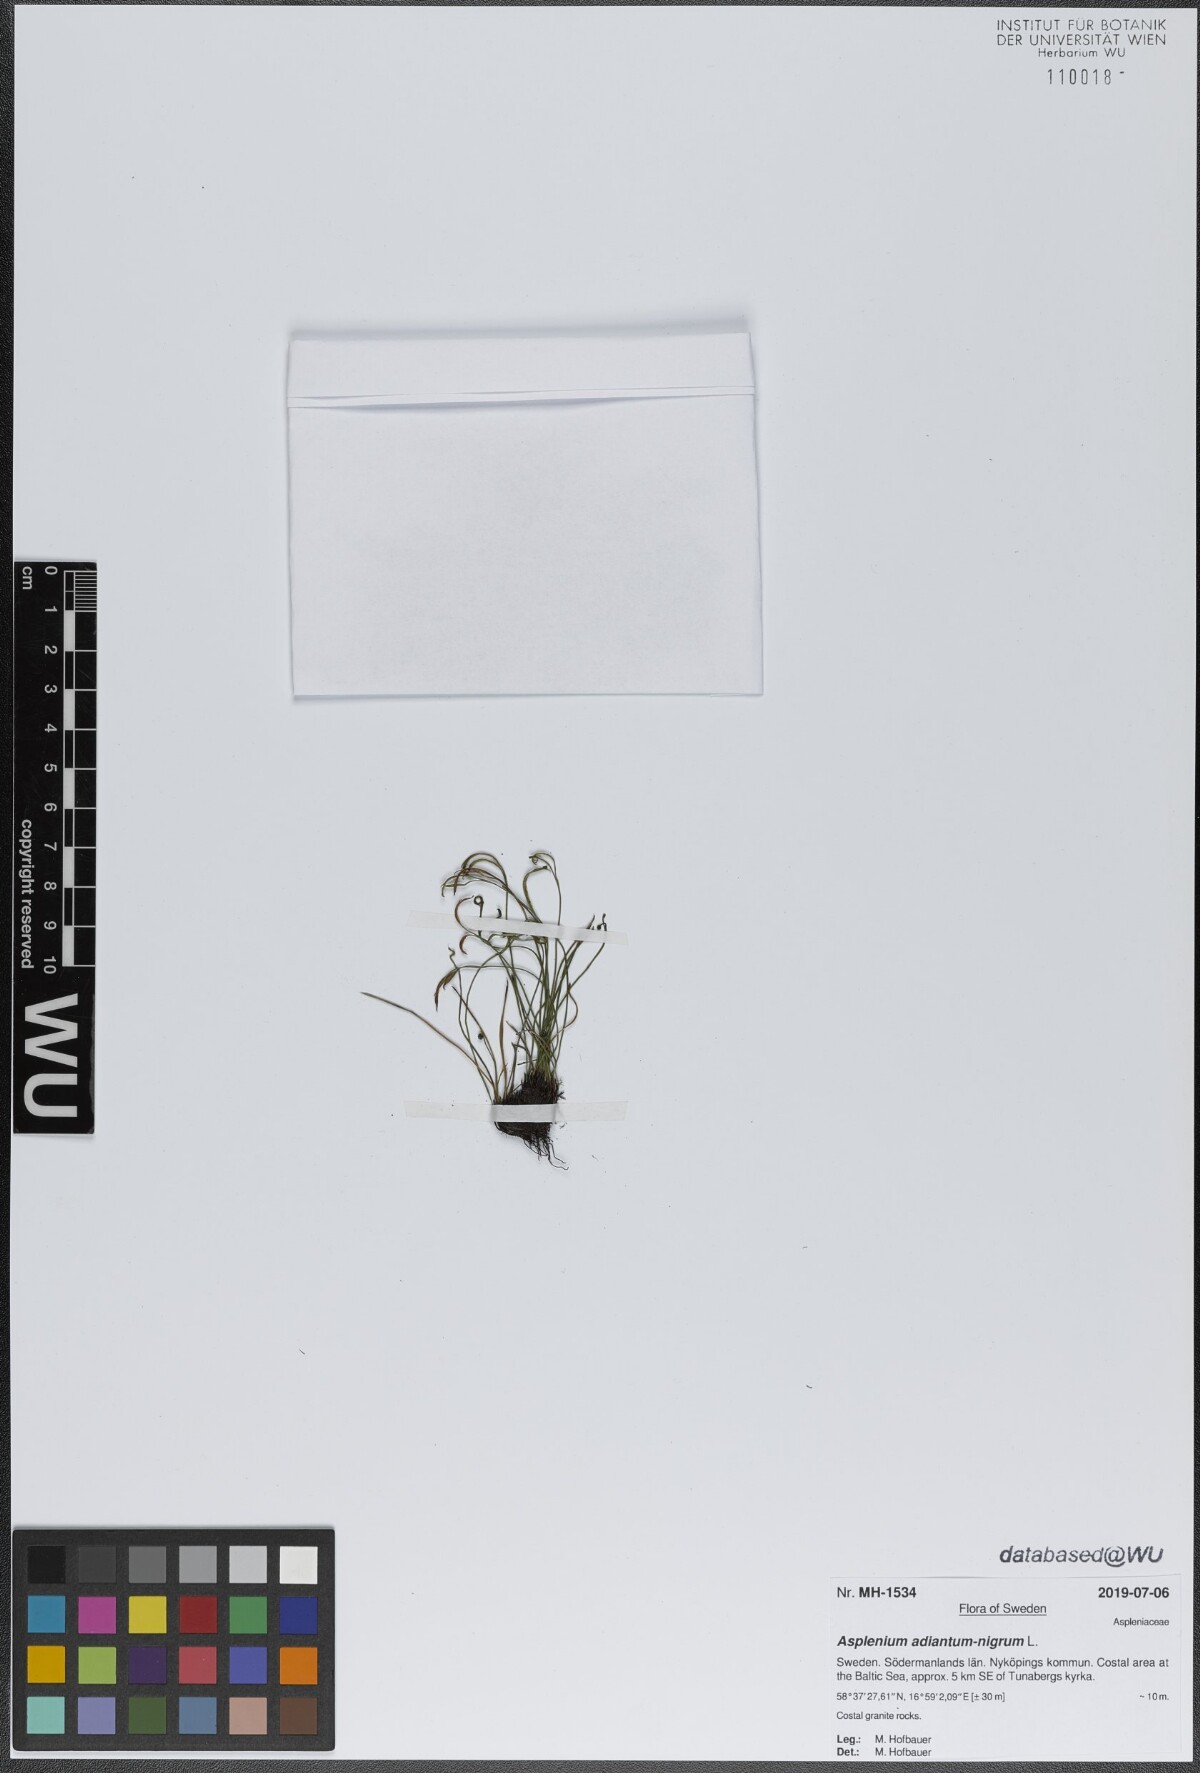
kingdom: Plantae
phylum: Tracheophyta
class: Polypodiopsida
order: Polypodiales
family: Aspleniaceae
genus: Asplenium
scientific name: Asplenium adiantum-nigrum
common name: Black spleenwort
